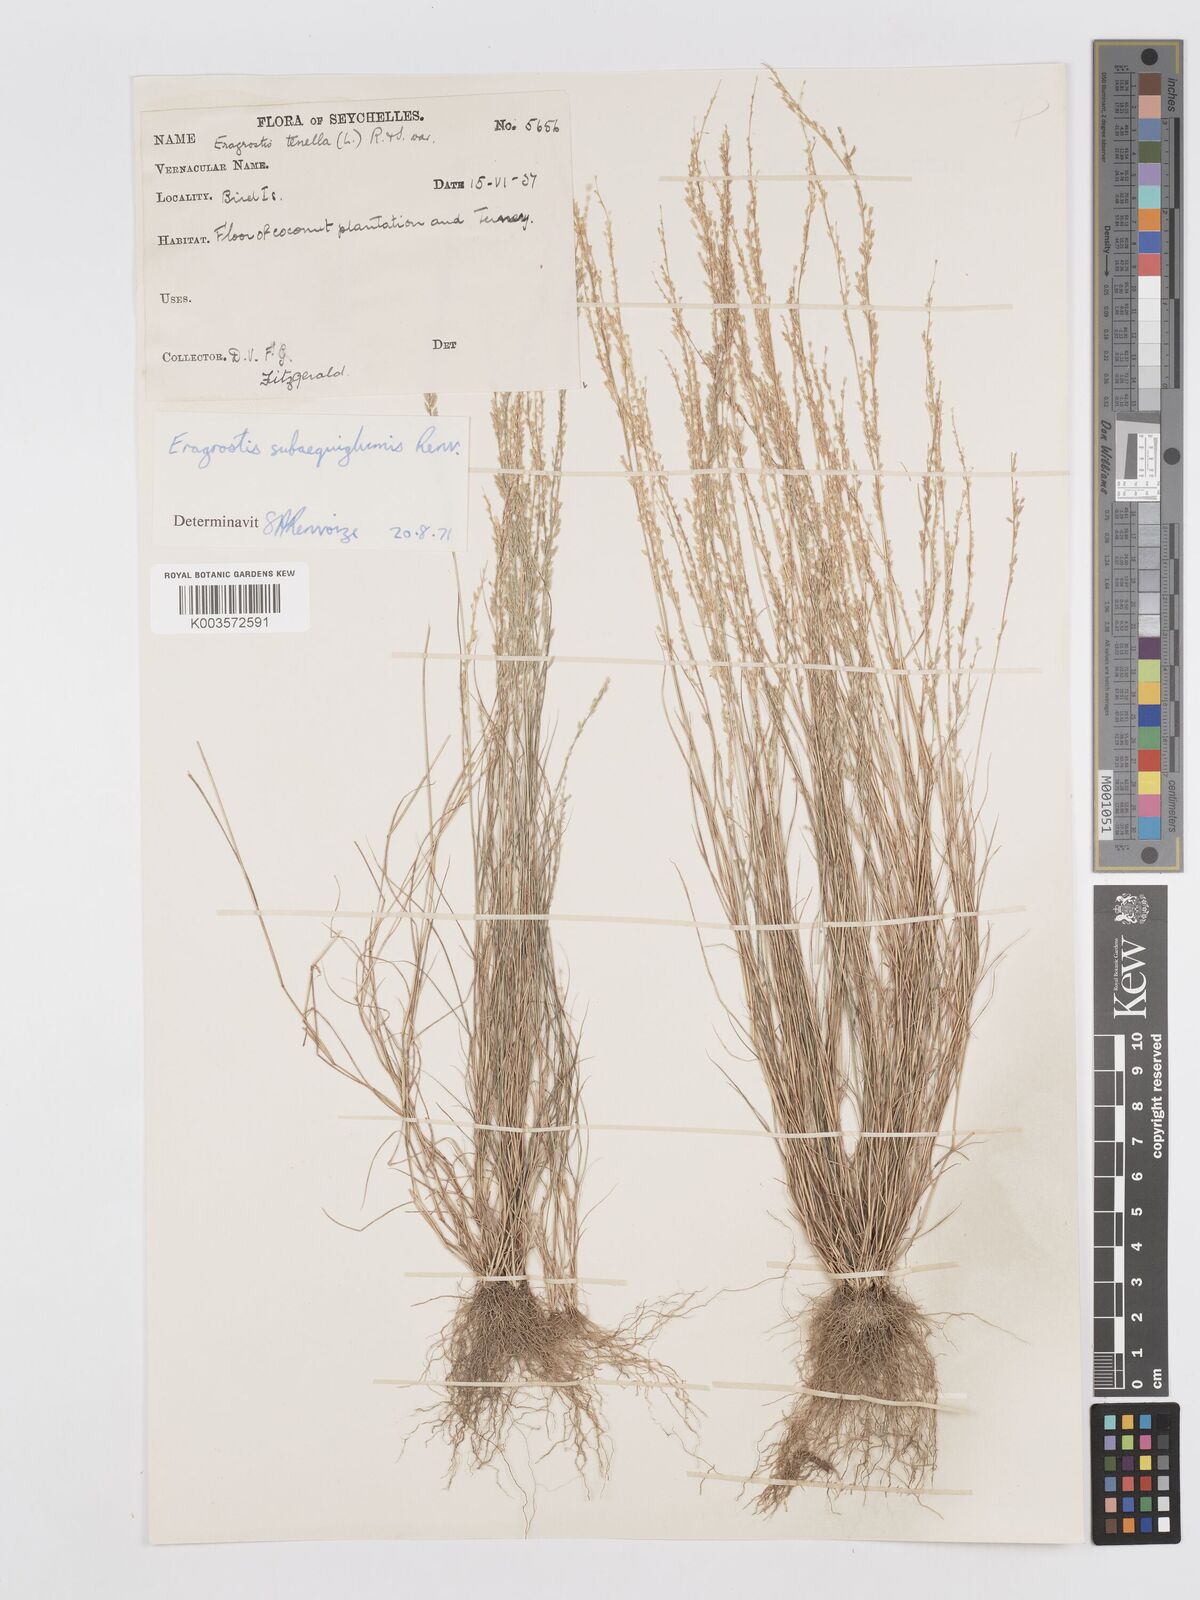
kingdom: Plantae
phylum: Tracheophyta
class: Liliopsida
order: Poales
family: Poaceae
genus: Eragrostis
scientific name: Eragrostis subaequiglumis
